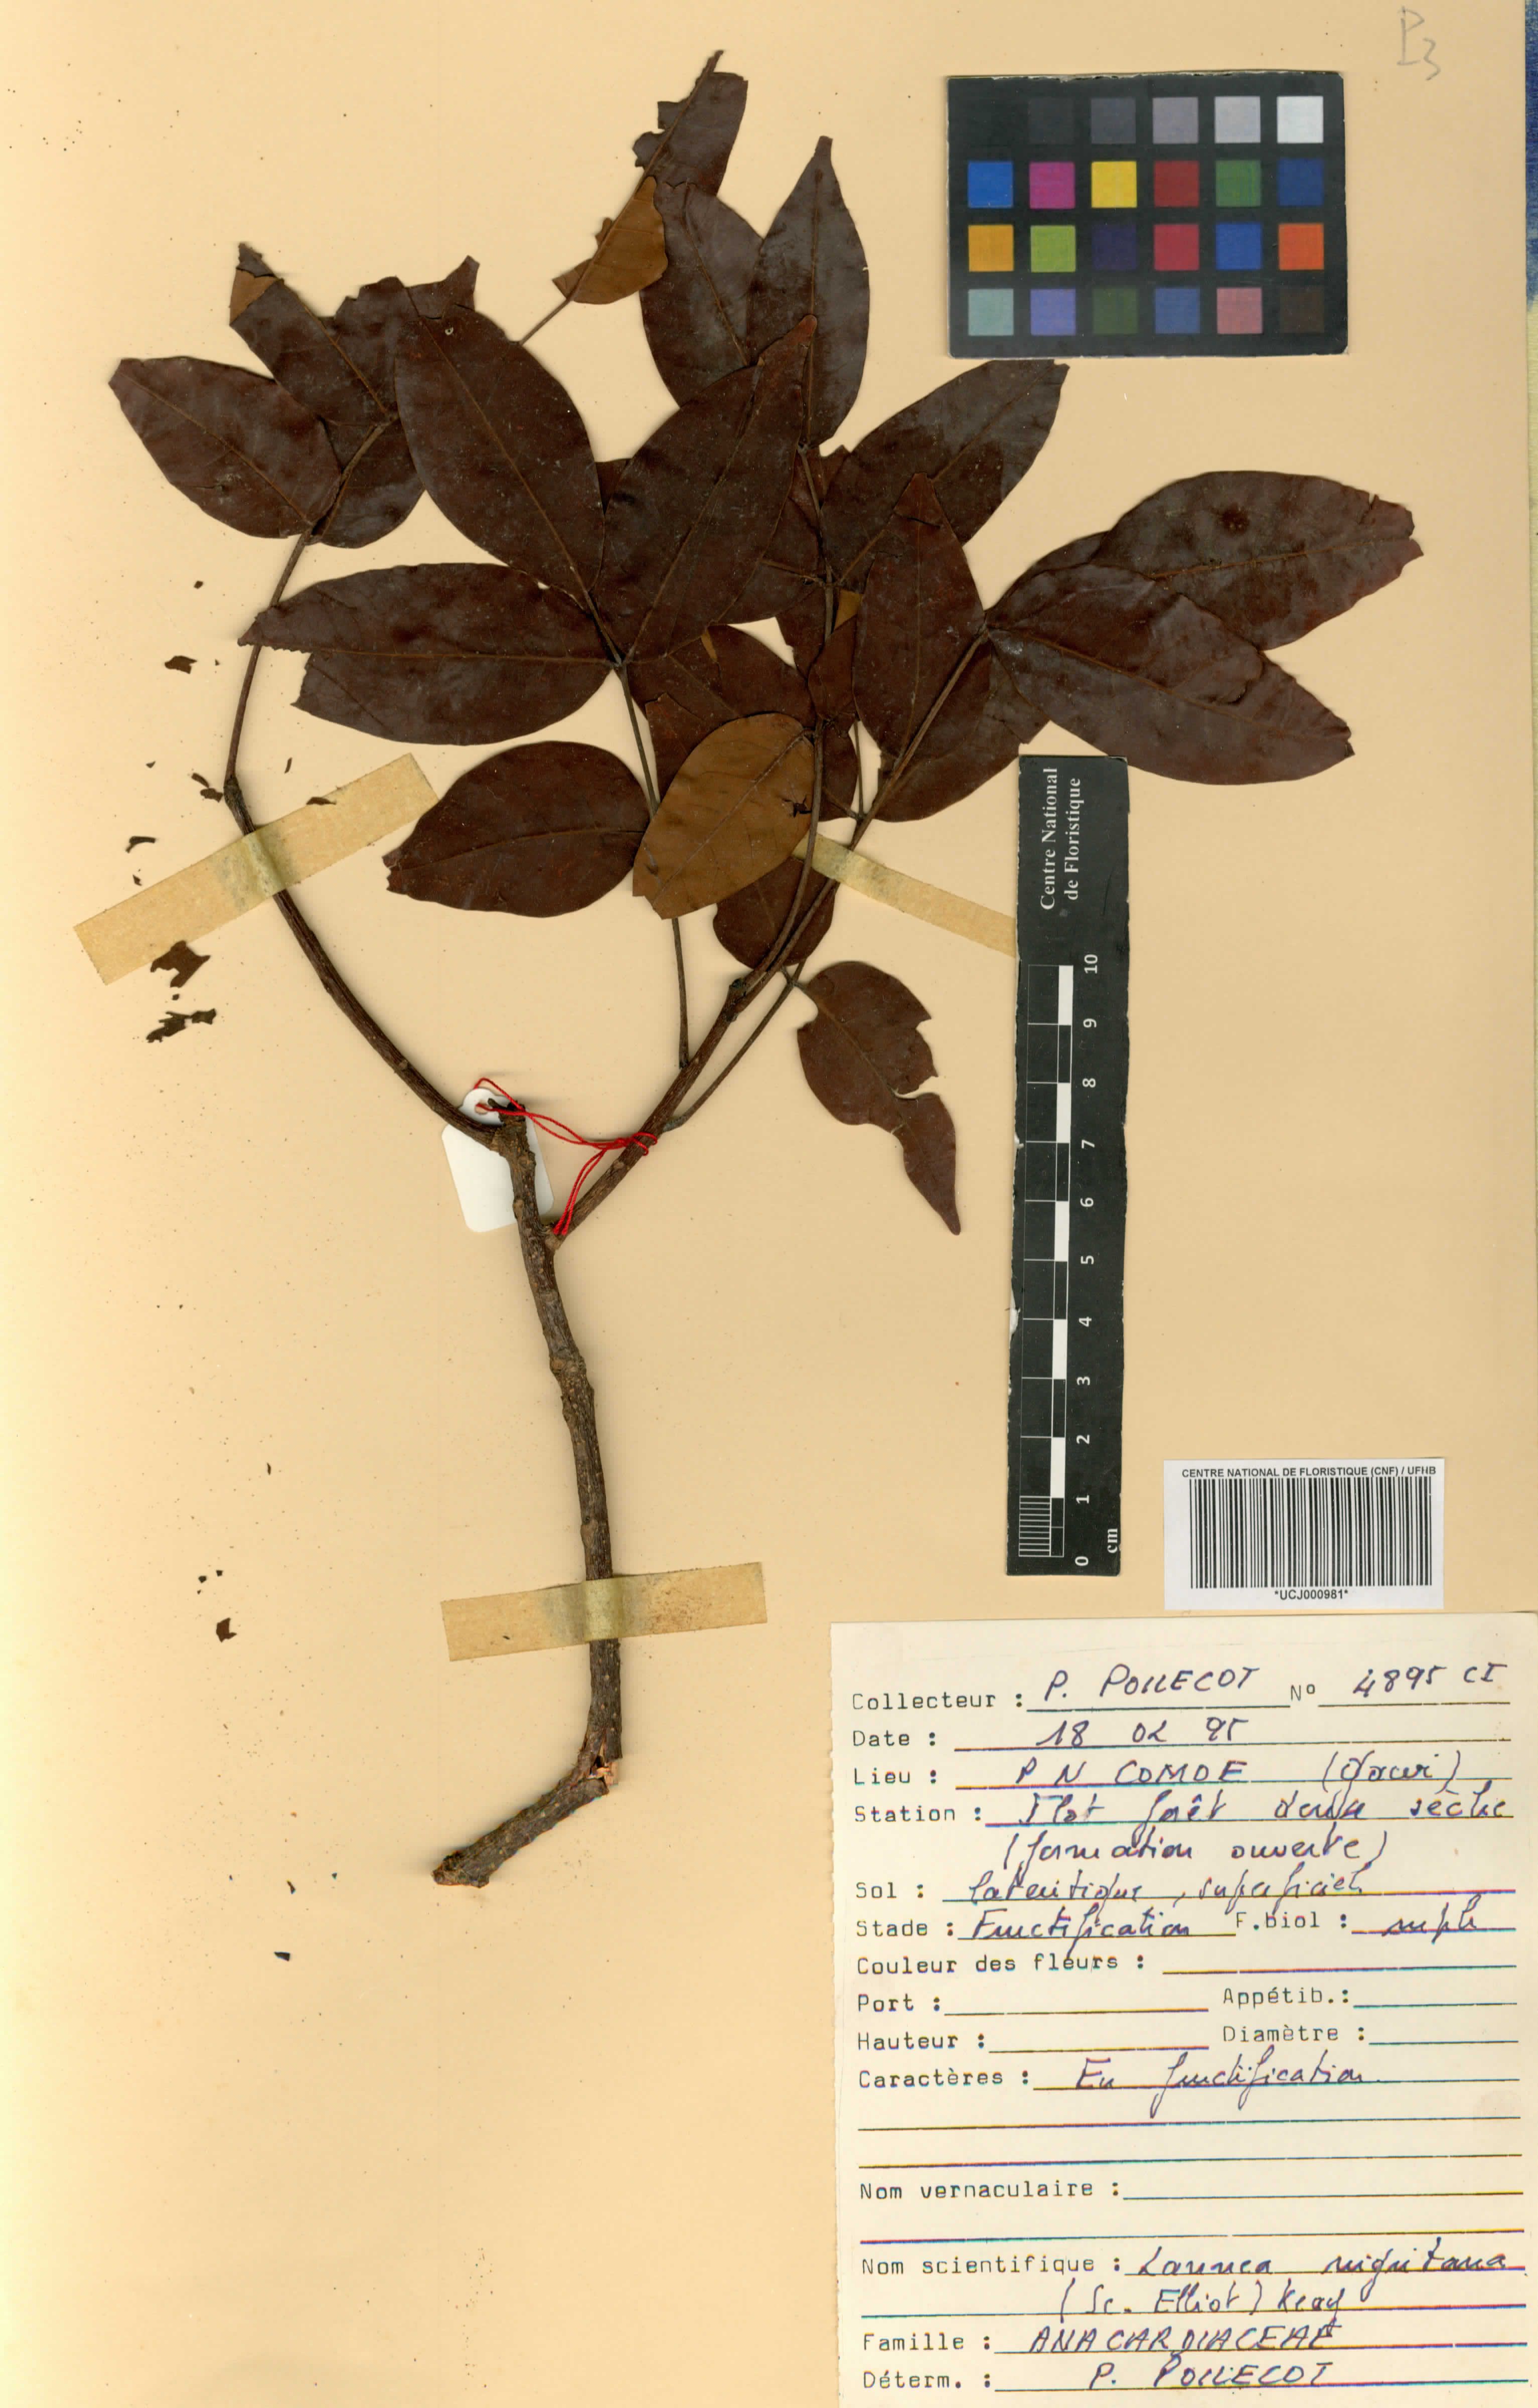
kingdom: Plantae
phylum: Tracheophyta
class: Magnoliopsida
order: Sapindales
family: Anacardiaceae
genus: Lannea
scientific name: Lannea nigritana
